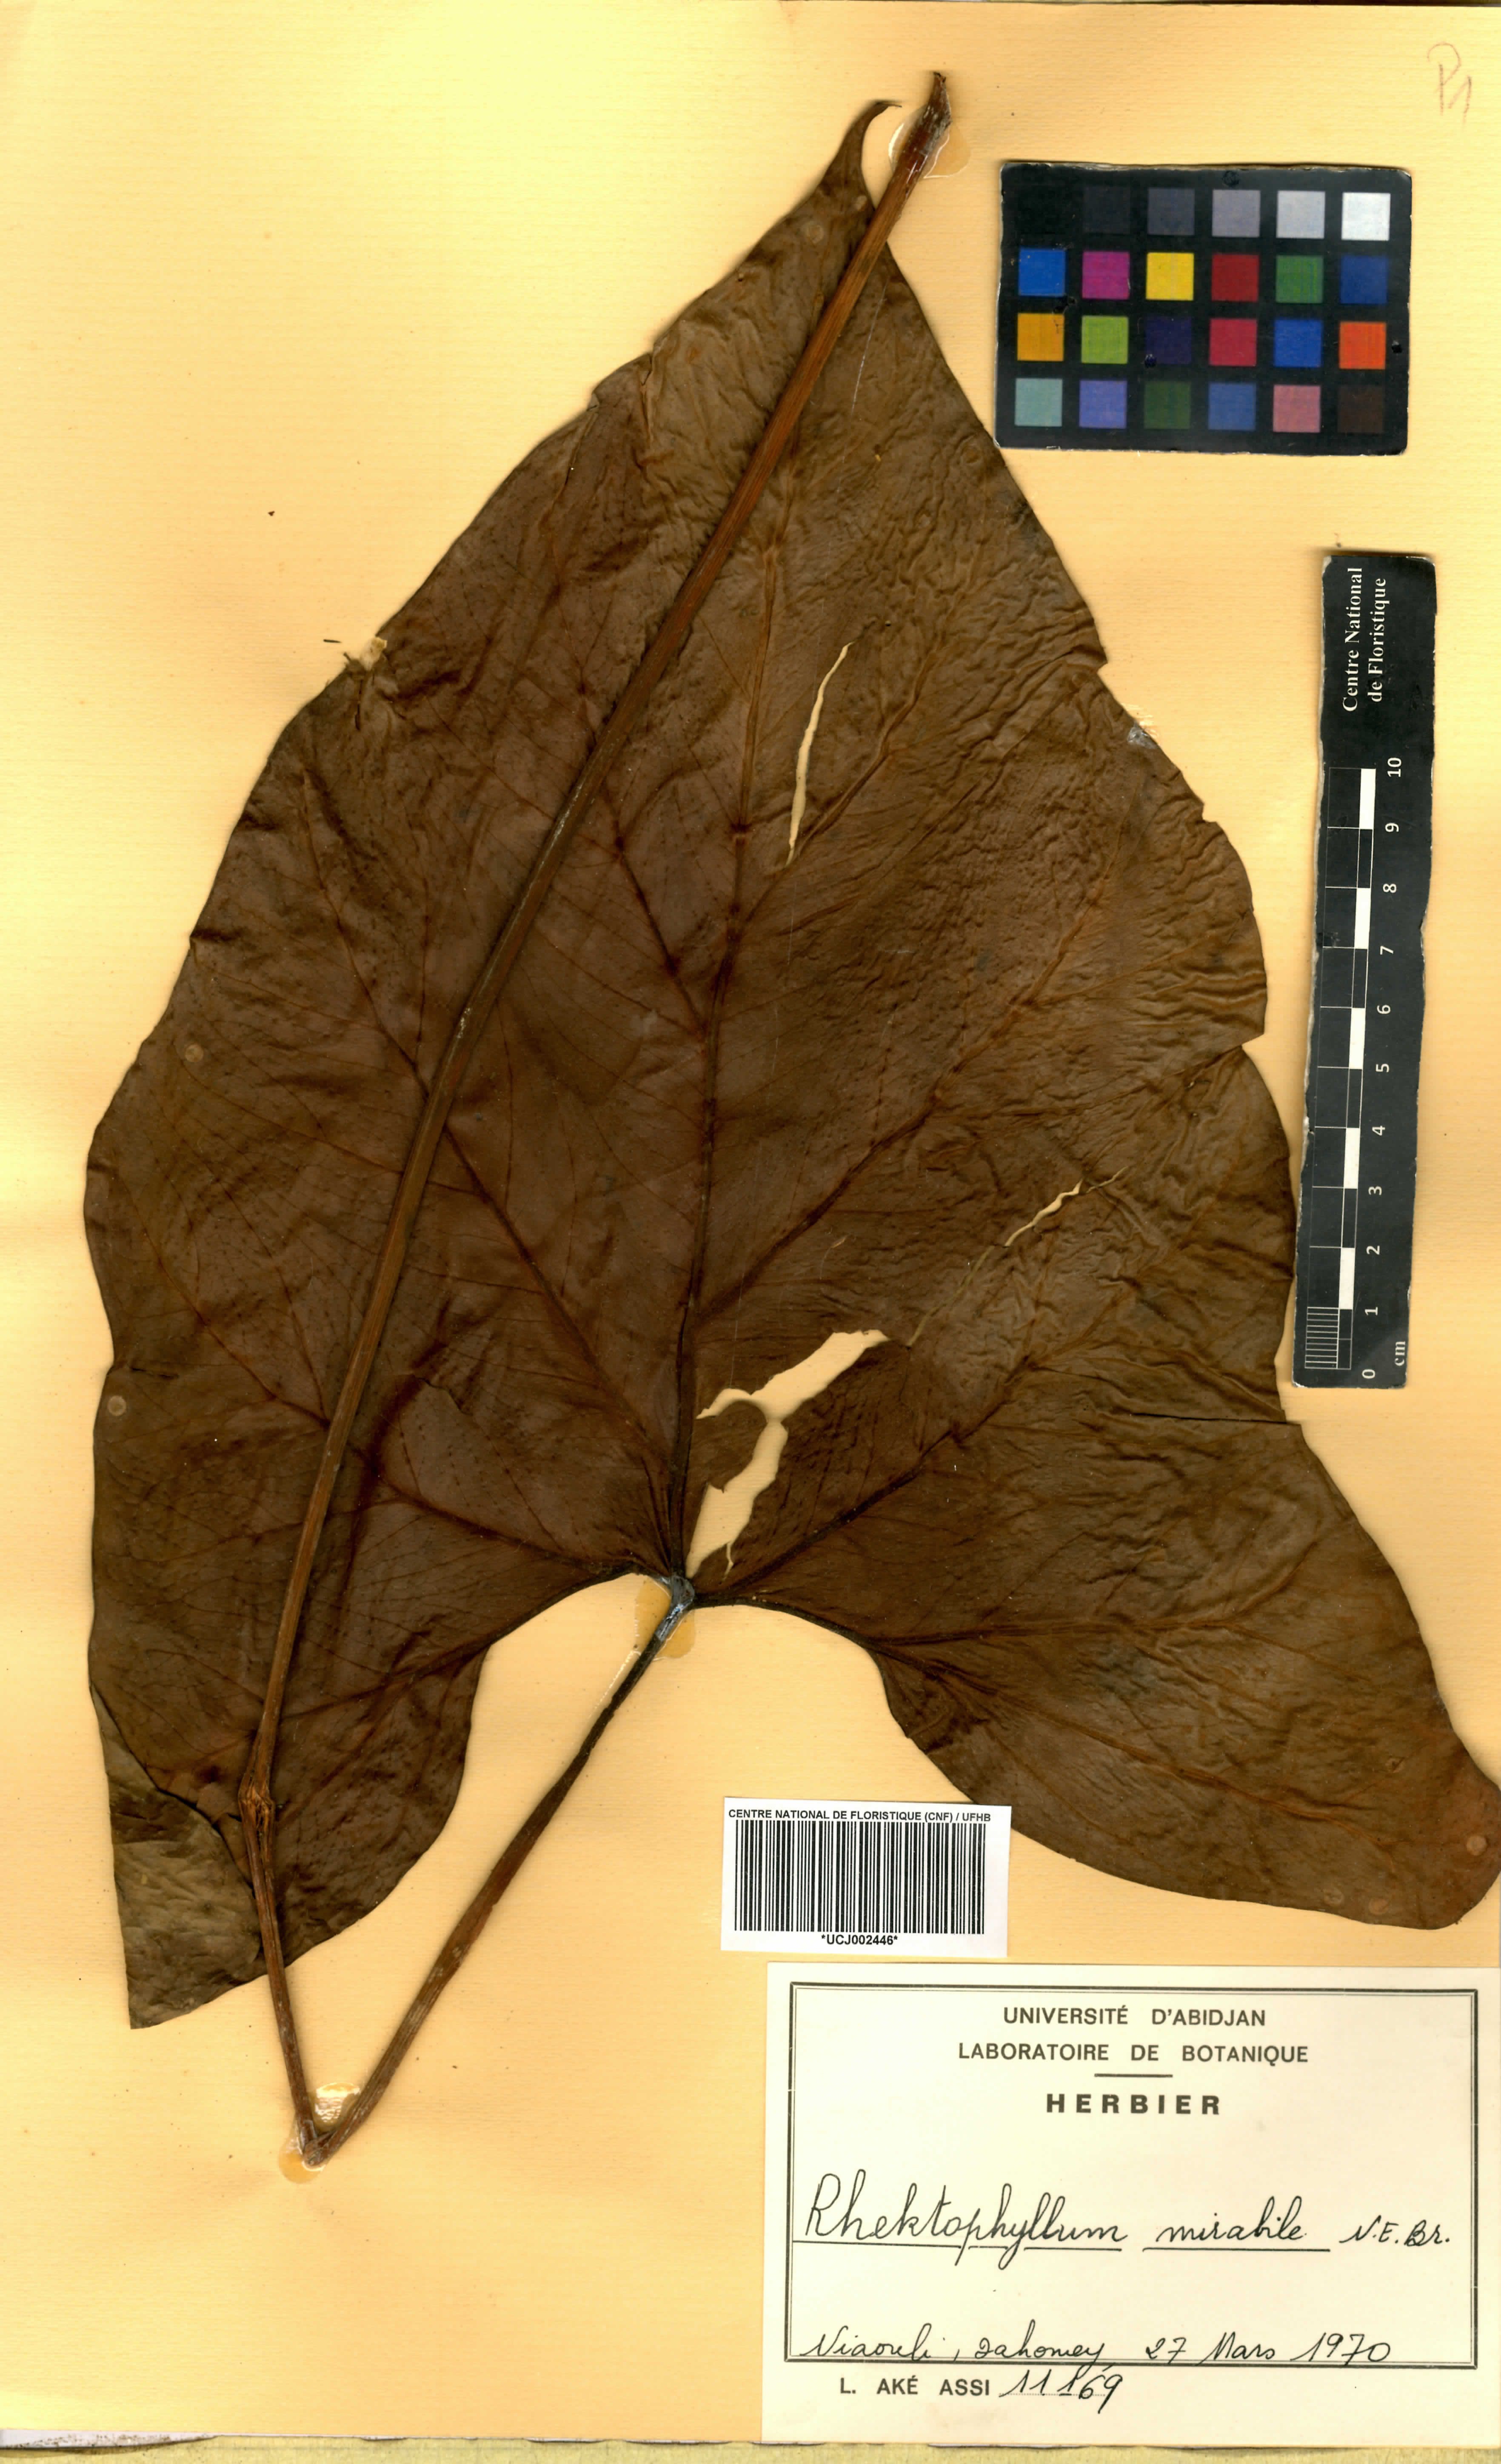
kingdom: Plantae
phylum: Tracheophyta
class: Liliopsida
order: Alismatales
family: Araceae
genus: Cercestis
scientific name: Cercestis mirabilis
